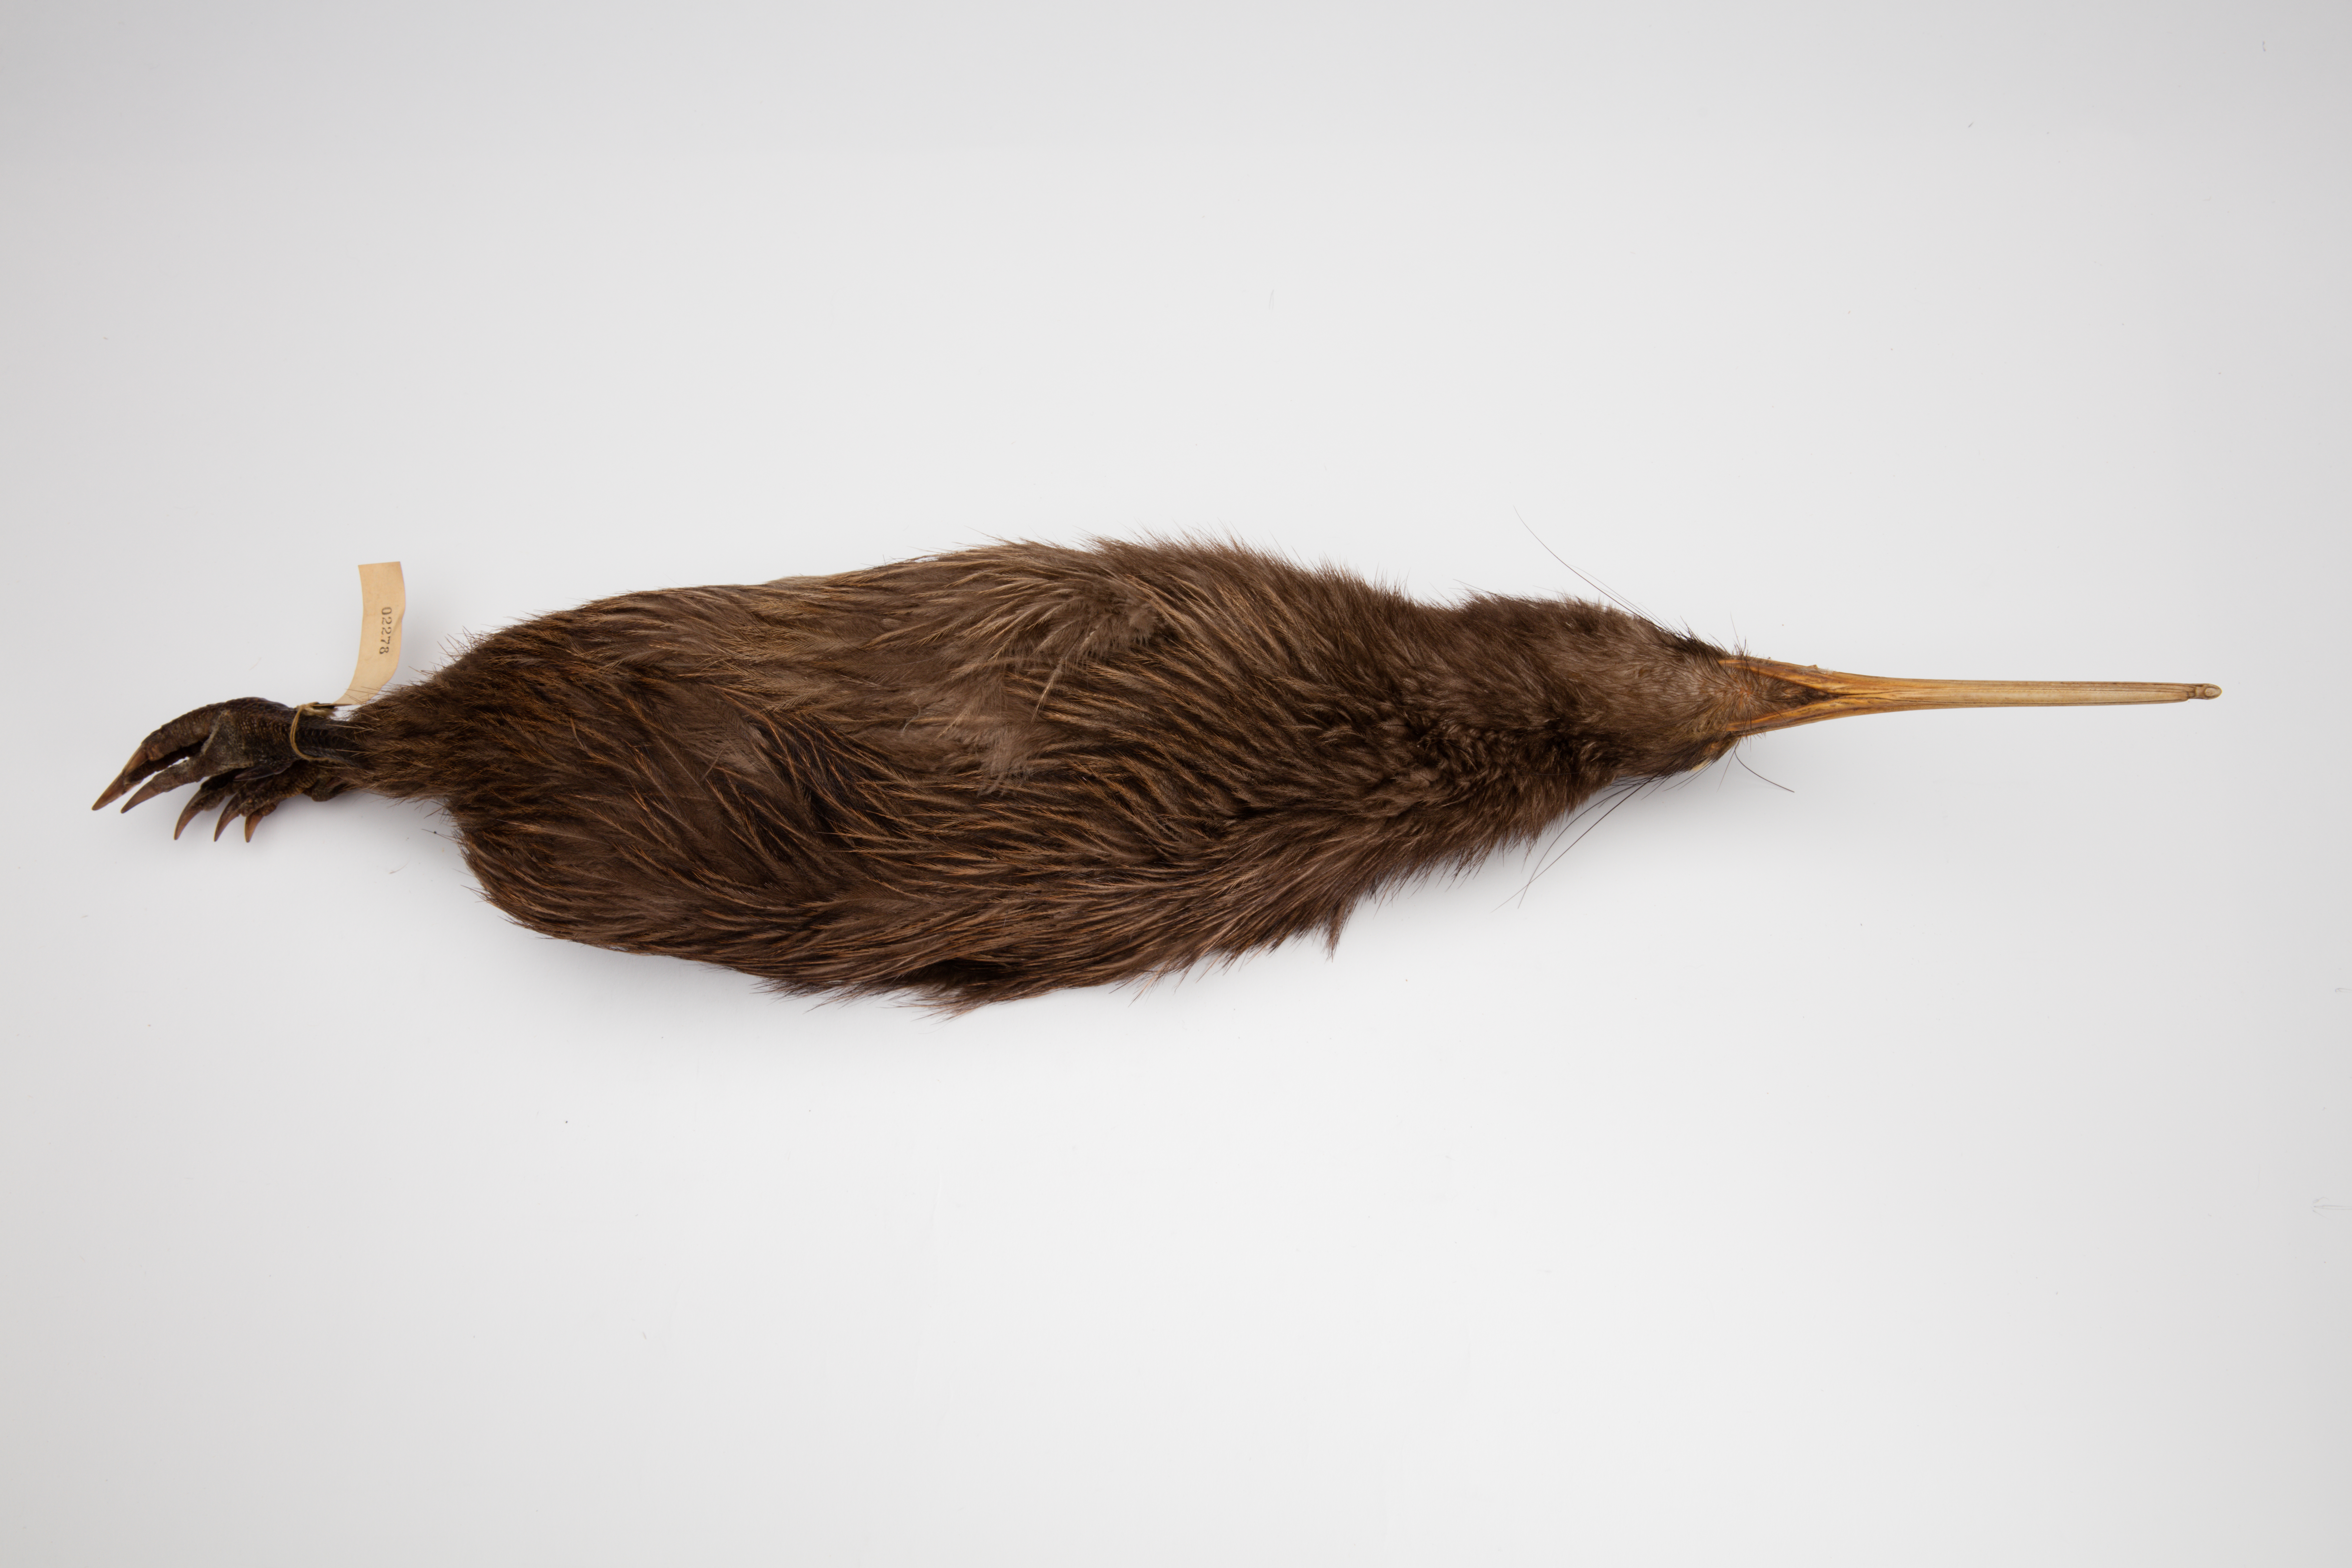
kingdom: Animalia
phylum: Chordata
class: Aves
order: Apterygiformes
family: Apterygidae
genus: Apteryx
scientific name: Apteryx mantelli
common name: North island brown kiwi
